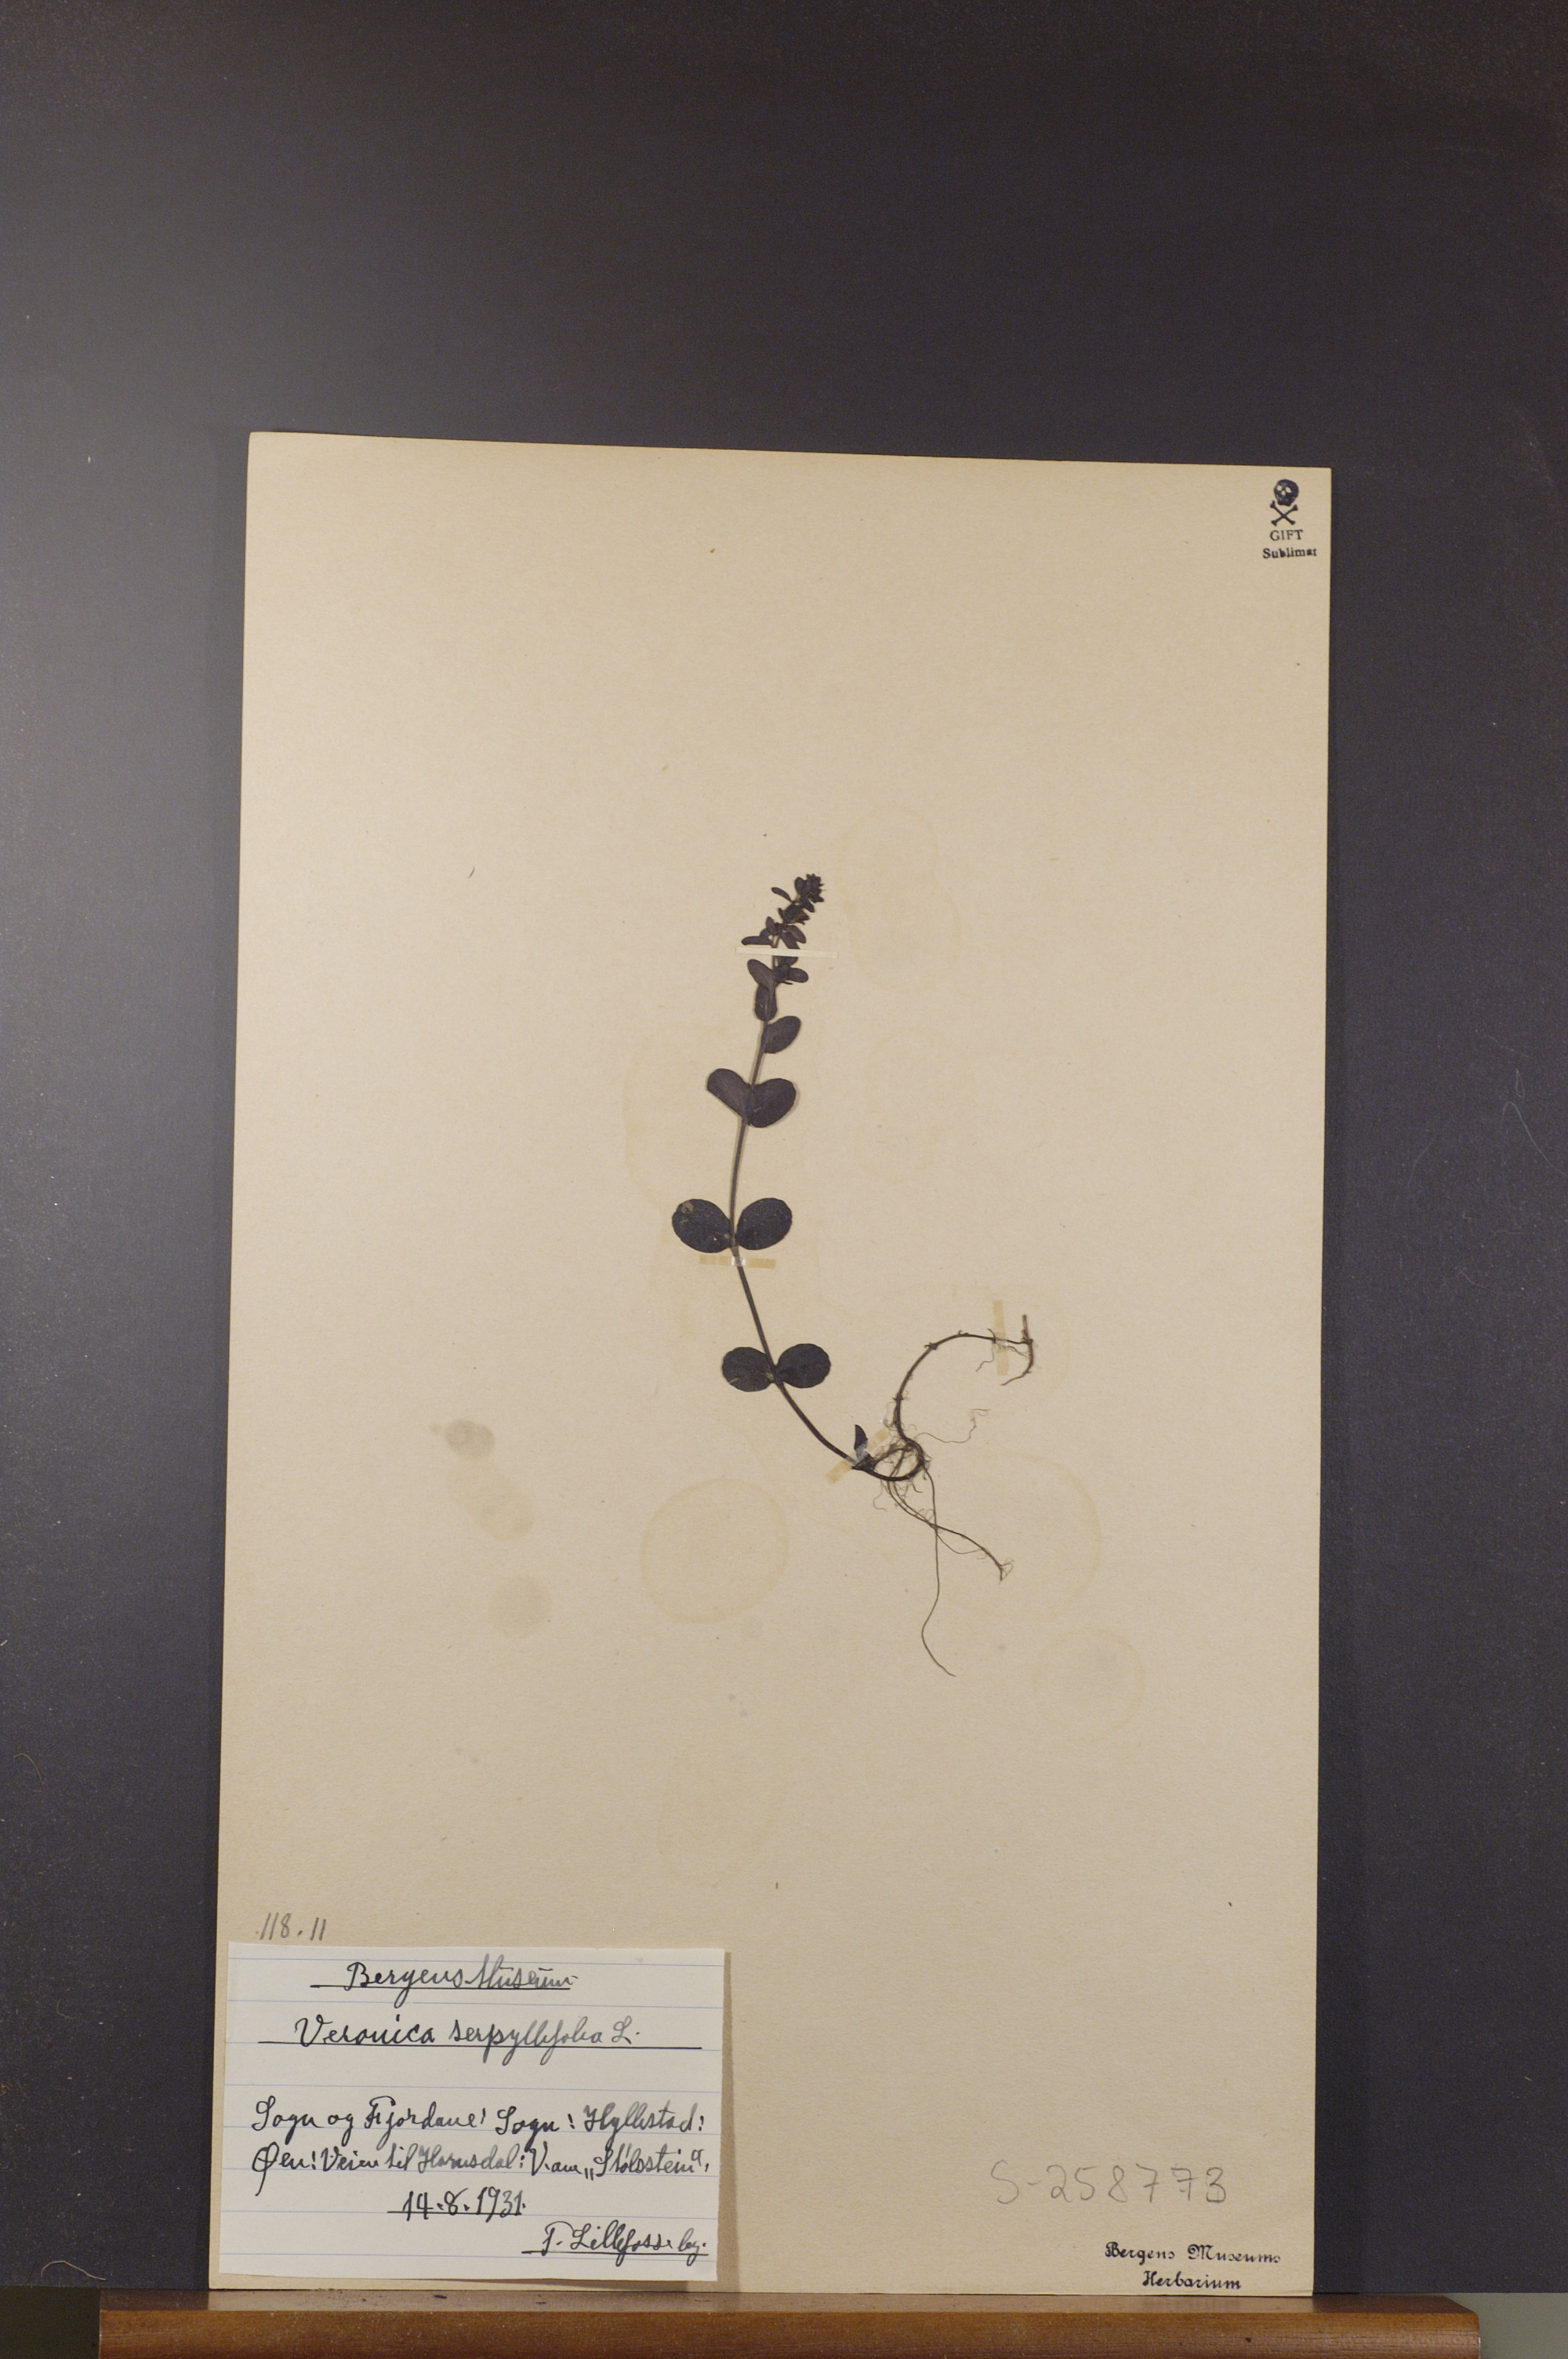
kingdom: Plantae
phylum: Tracheophyta
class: Magnoliopsida
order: Lamiales
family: Plantaginaceae
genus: Veronica
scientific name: Veronica serpyllifolia
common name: Thyme-leaved speedwell
